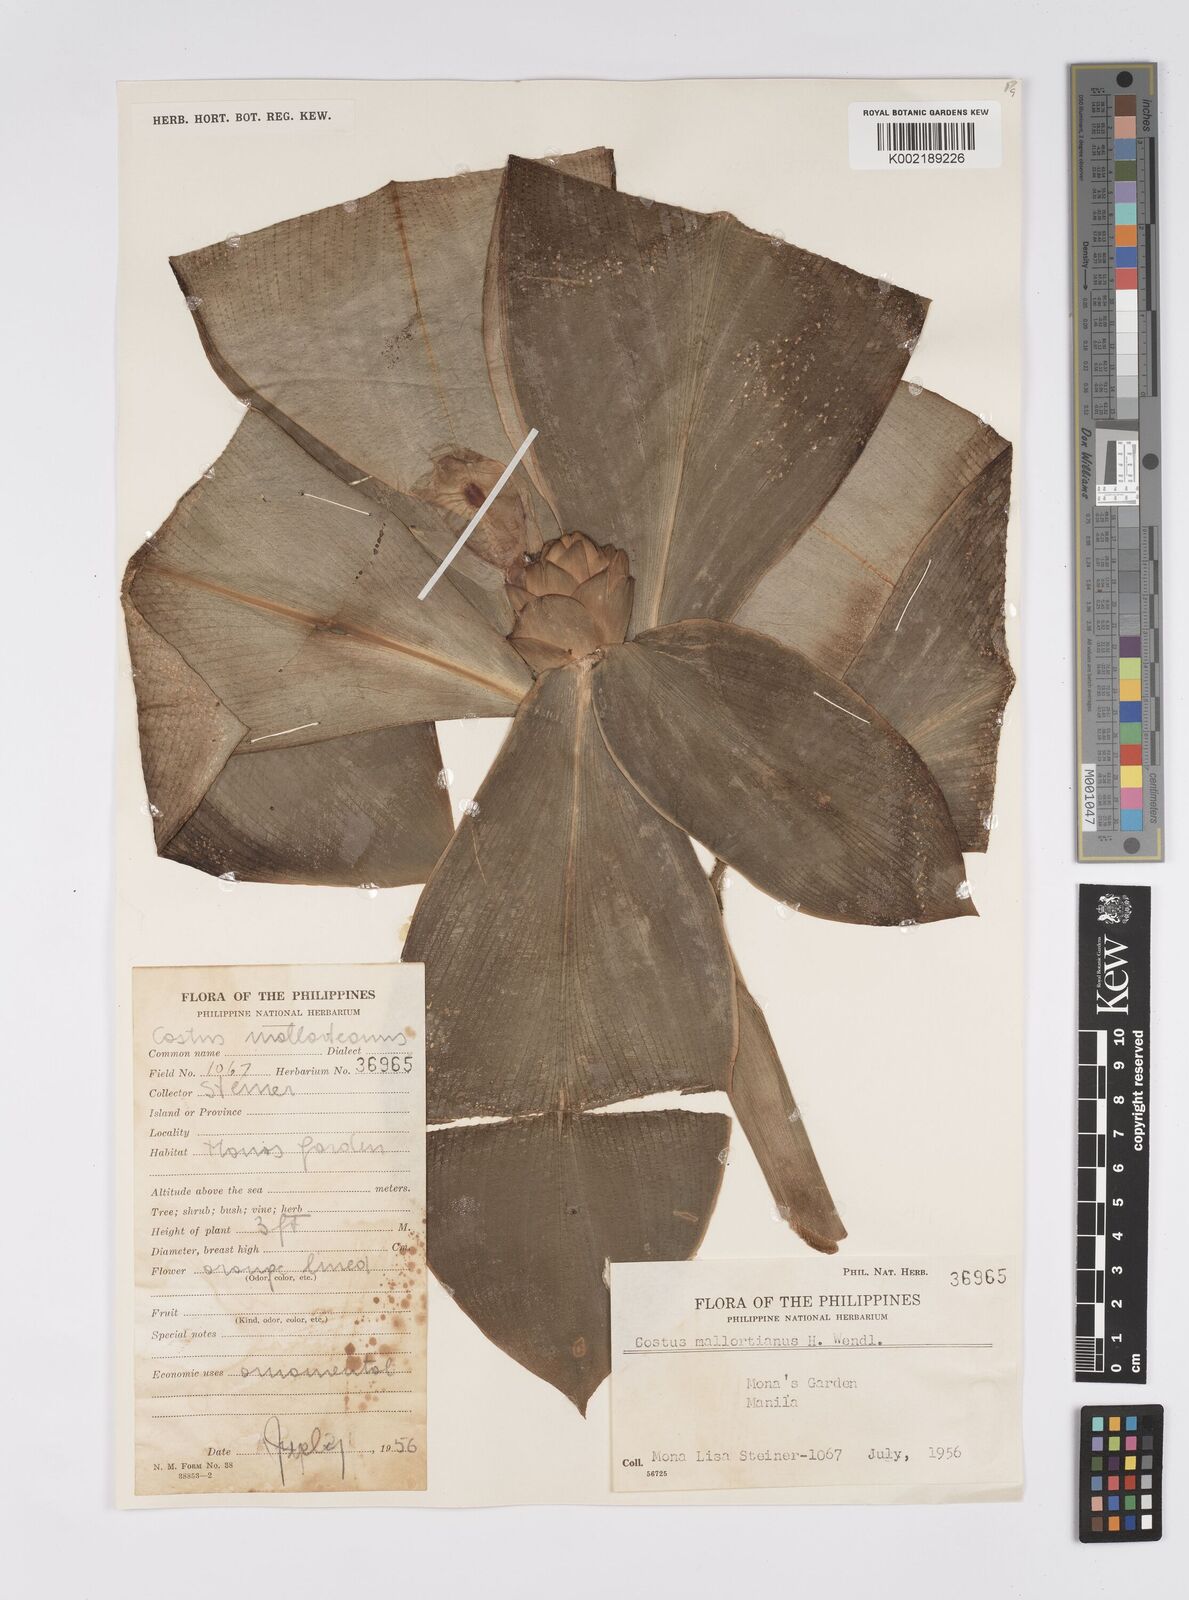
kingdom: Plantae
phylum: Tracheophyta
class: Liliopsida
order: Zingiberales
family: Costaceae
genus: Costus
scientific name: Costus elegans
